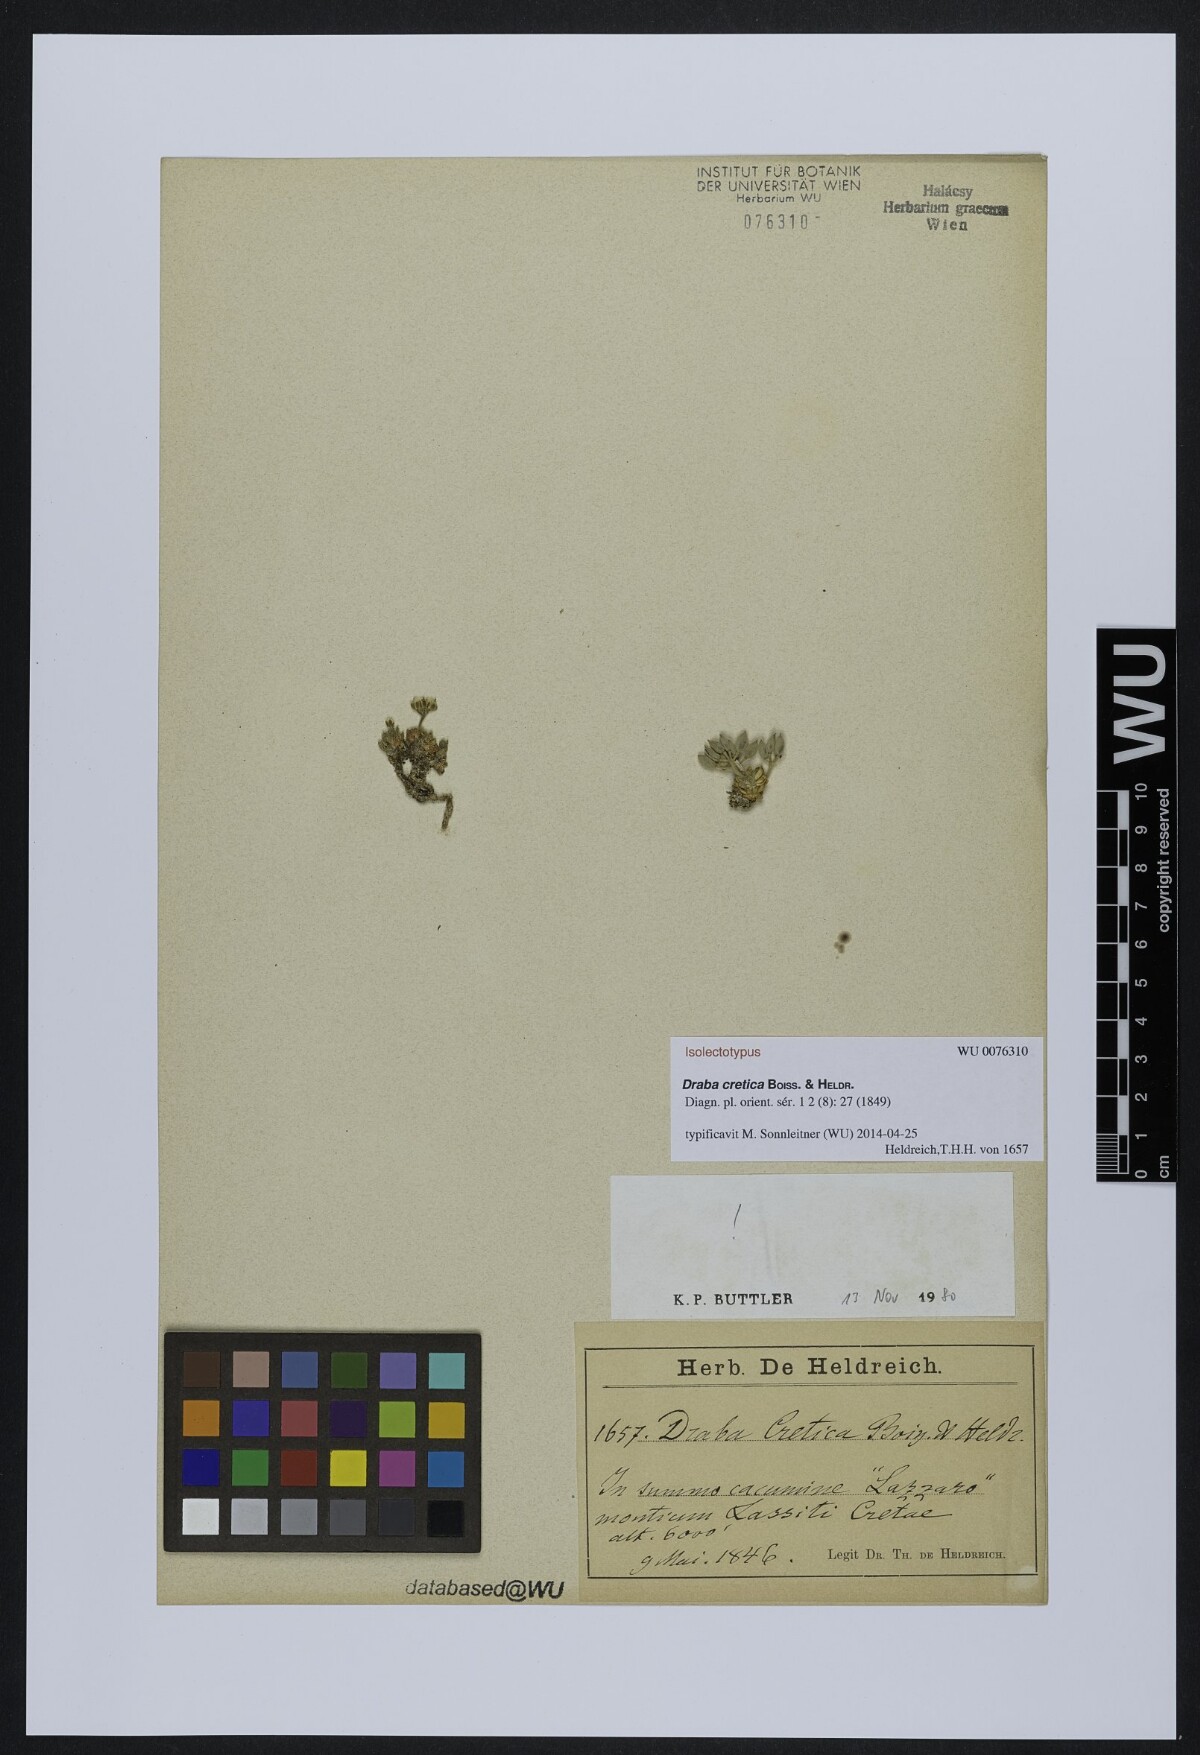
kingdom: Plantae
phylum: Tracheophyta
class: Magnoliopsida
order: Brassicales
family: Brassicaceae
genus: Draba
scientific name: Draba cretica
